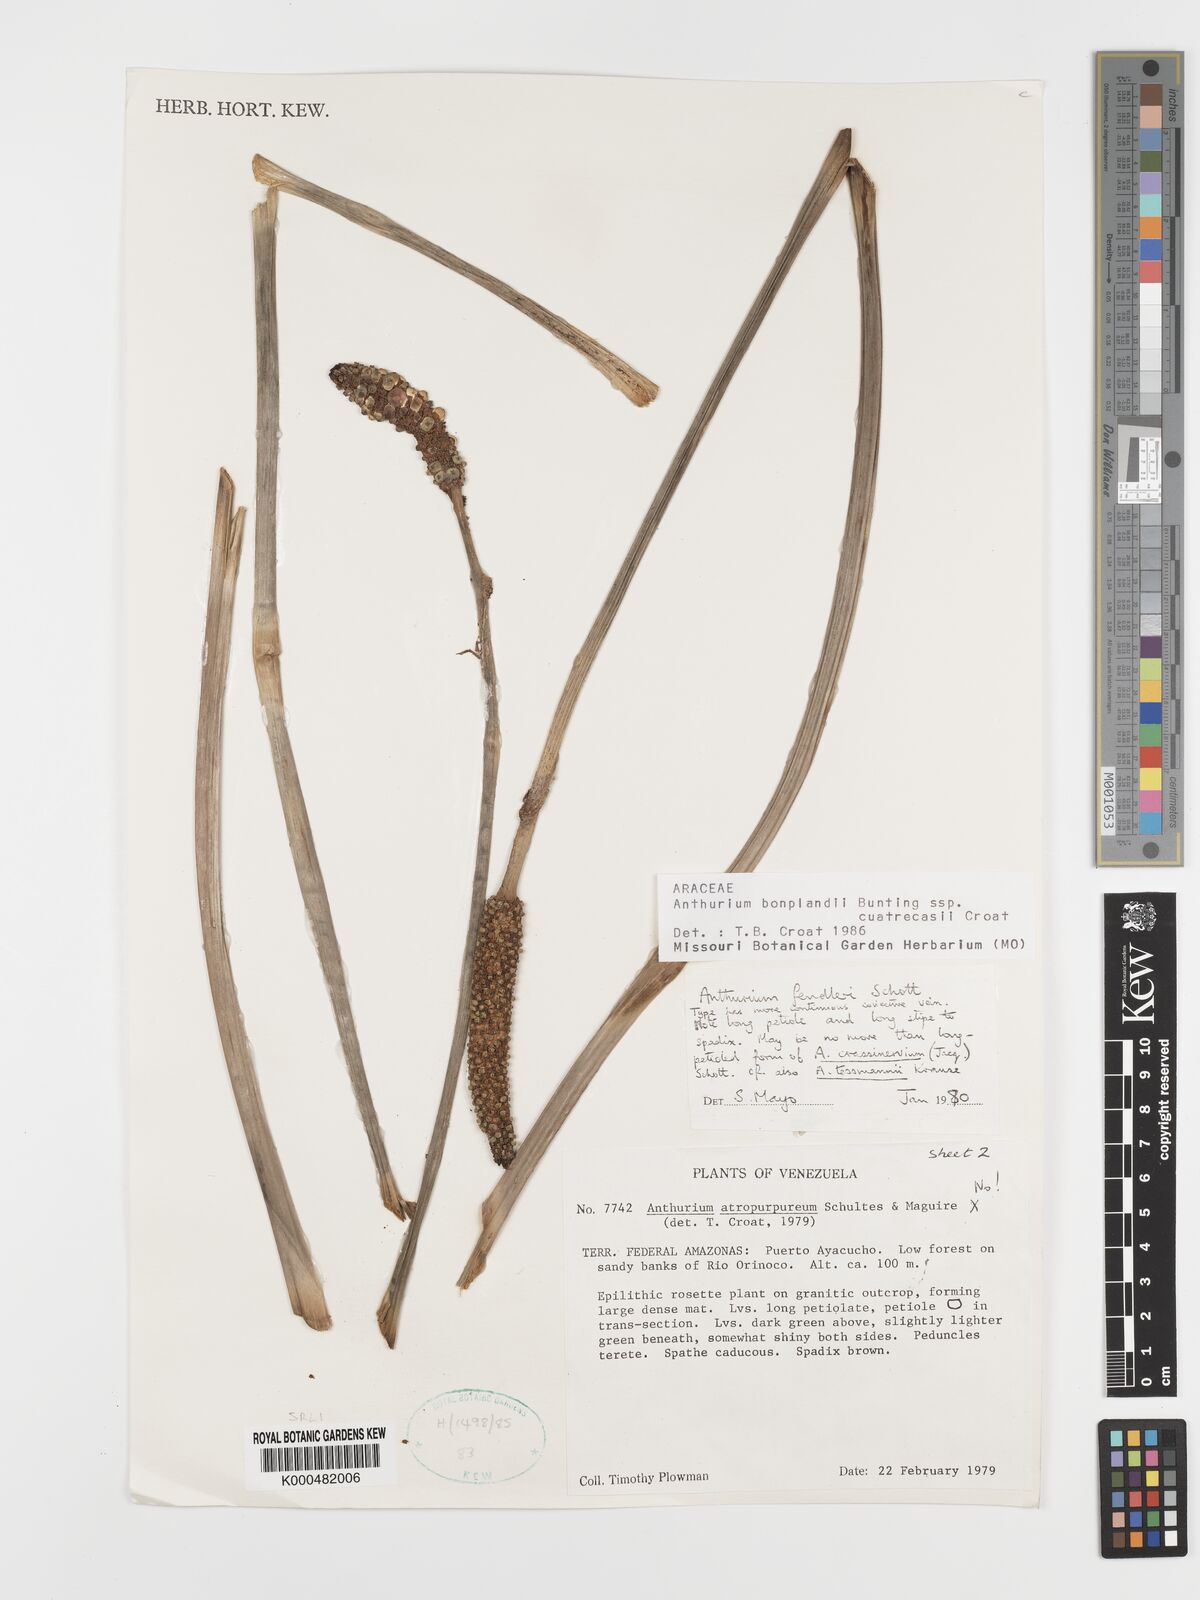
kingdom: Plantae
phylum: Tracheophyta
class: Liliopsida
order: Alismatales
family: Araceae
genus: Anthurium
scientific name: Anthurium
